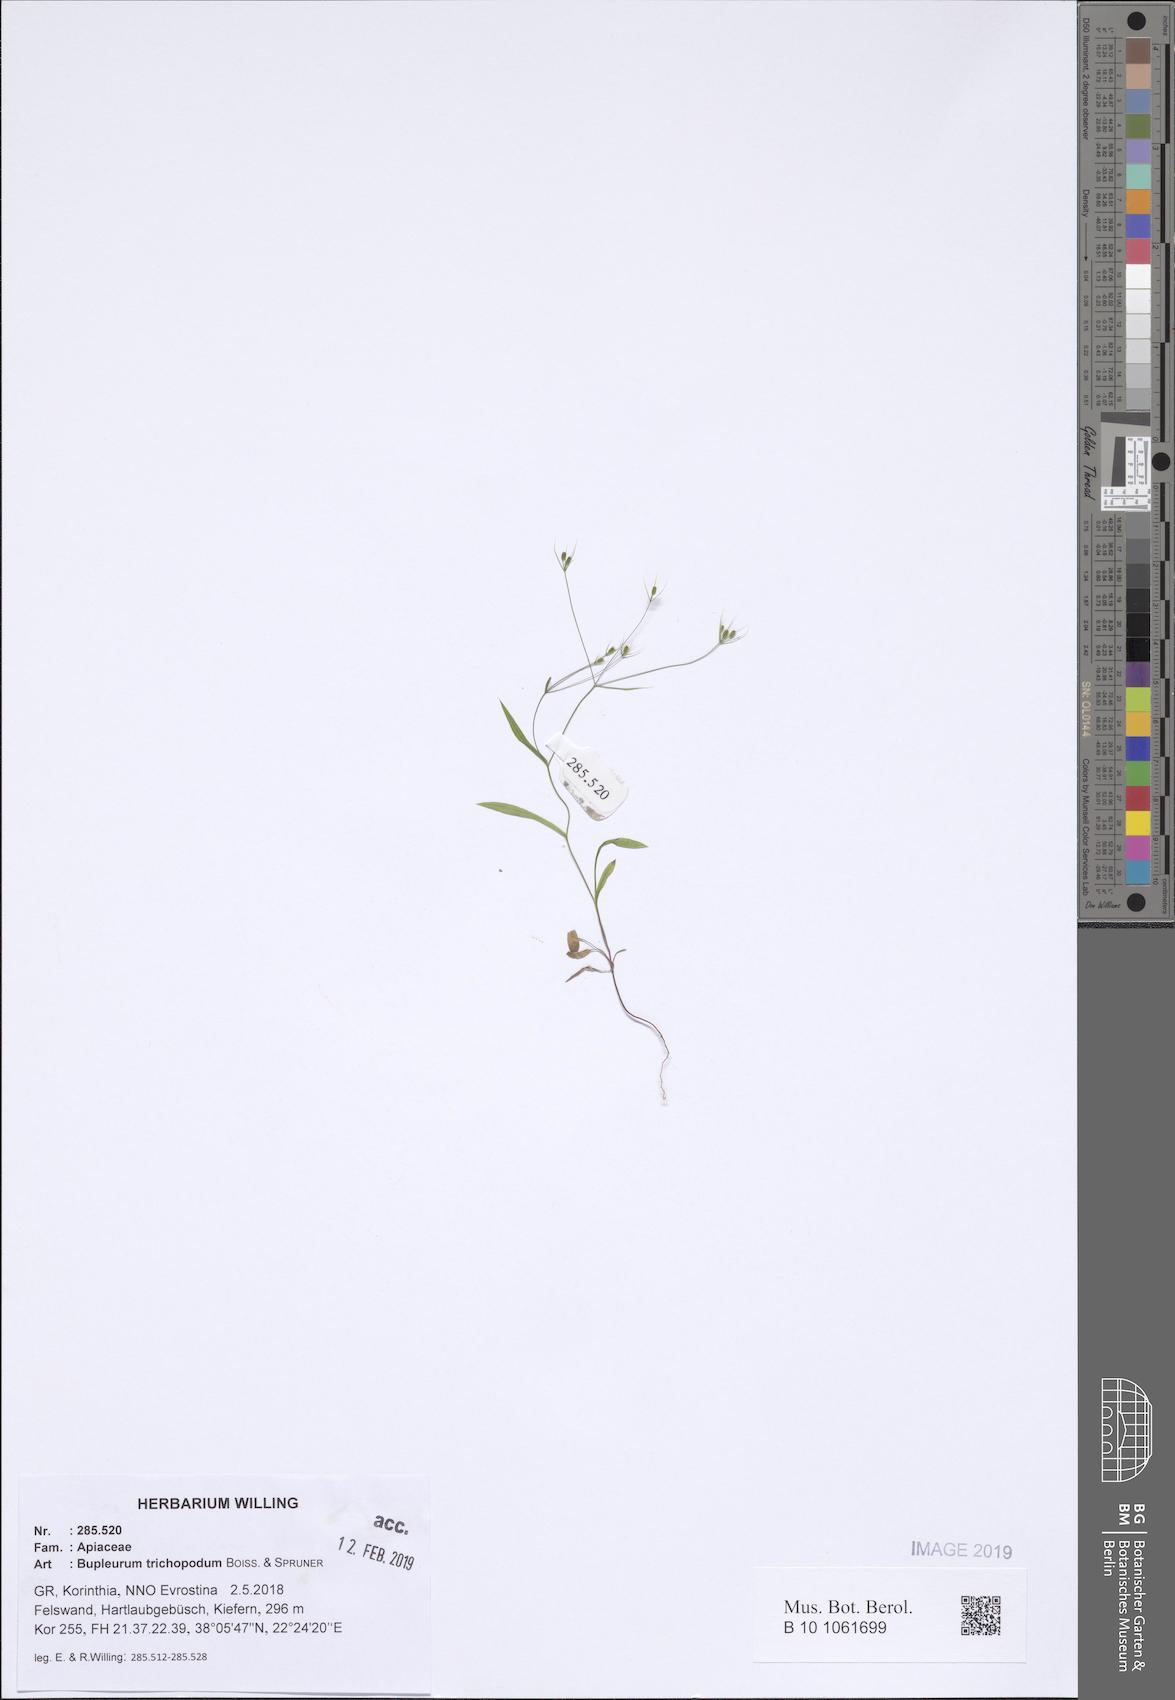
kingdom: Plantae
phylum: Tracheophyta
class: Magnoliopsida
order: Apiales
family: Apiaceae
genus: Bupleurum
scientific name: Bupleurum trichopodum
